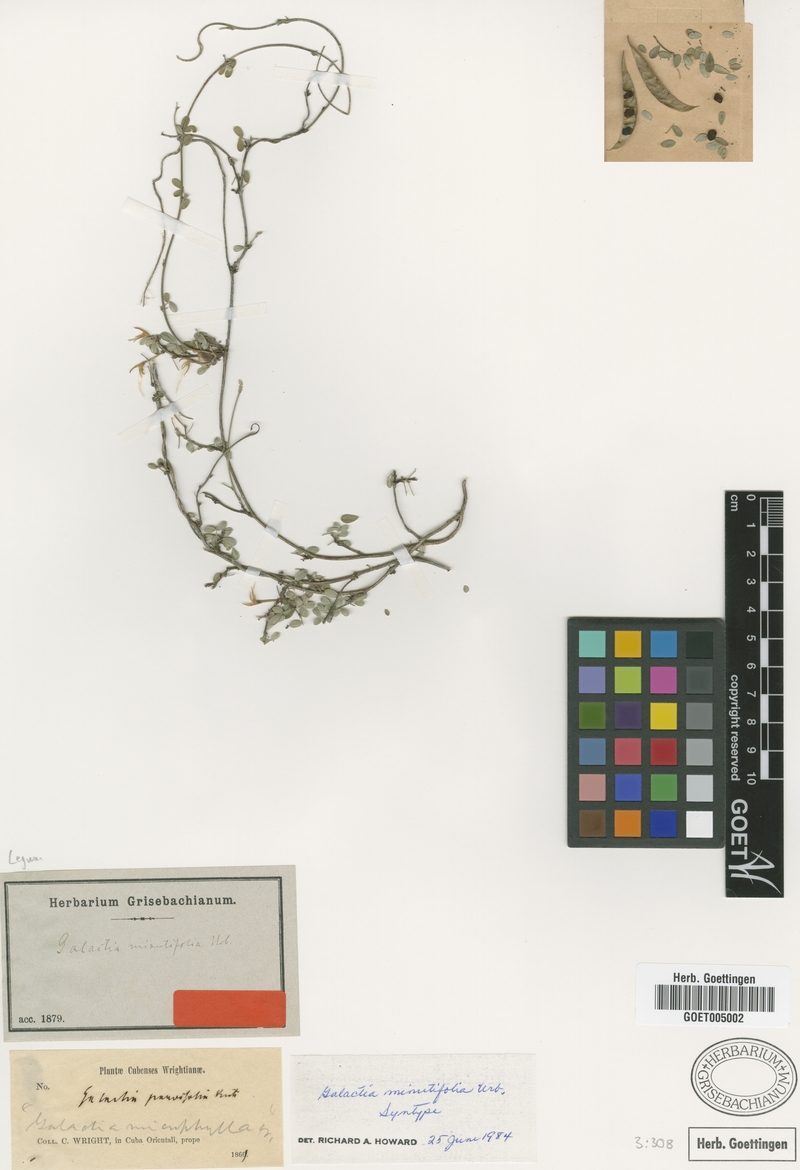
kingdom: Plantae
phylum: Tracheophyta
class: Magnoliopsida
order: Fabales
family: Fabaceae
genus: Galactia
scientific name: Galactia minutifolia
